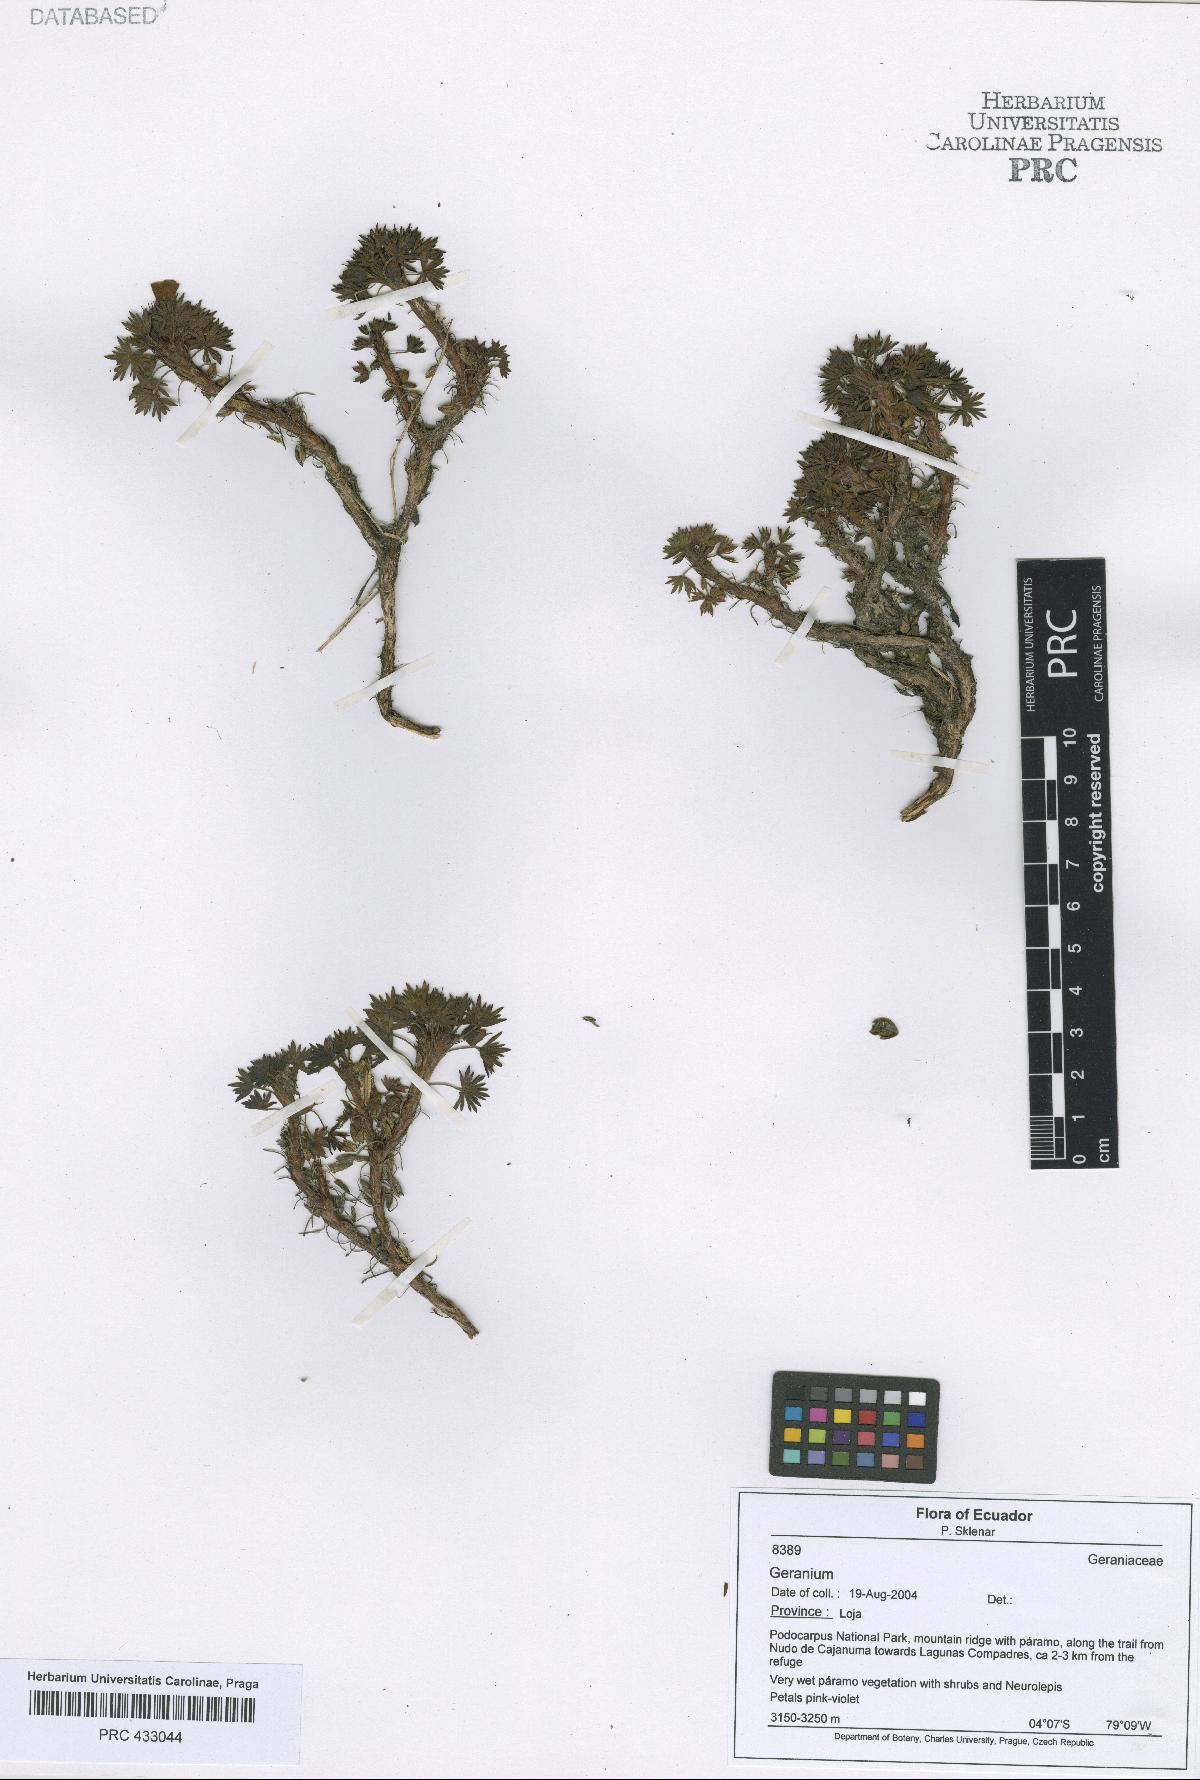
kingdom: Plantae
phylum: Tracheophyta
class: Magnoliopsida
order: Geraniales
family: Geraniaceae
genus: Geranium
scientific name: Geranium loxense
